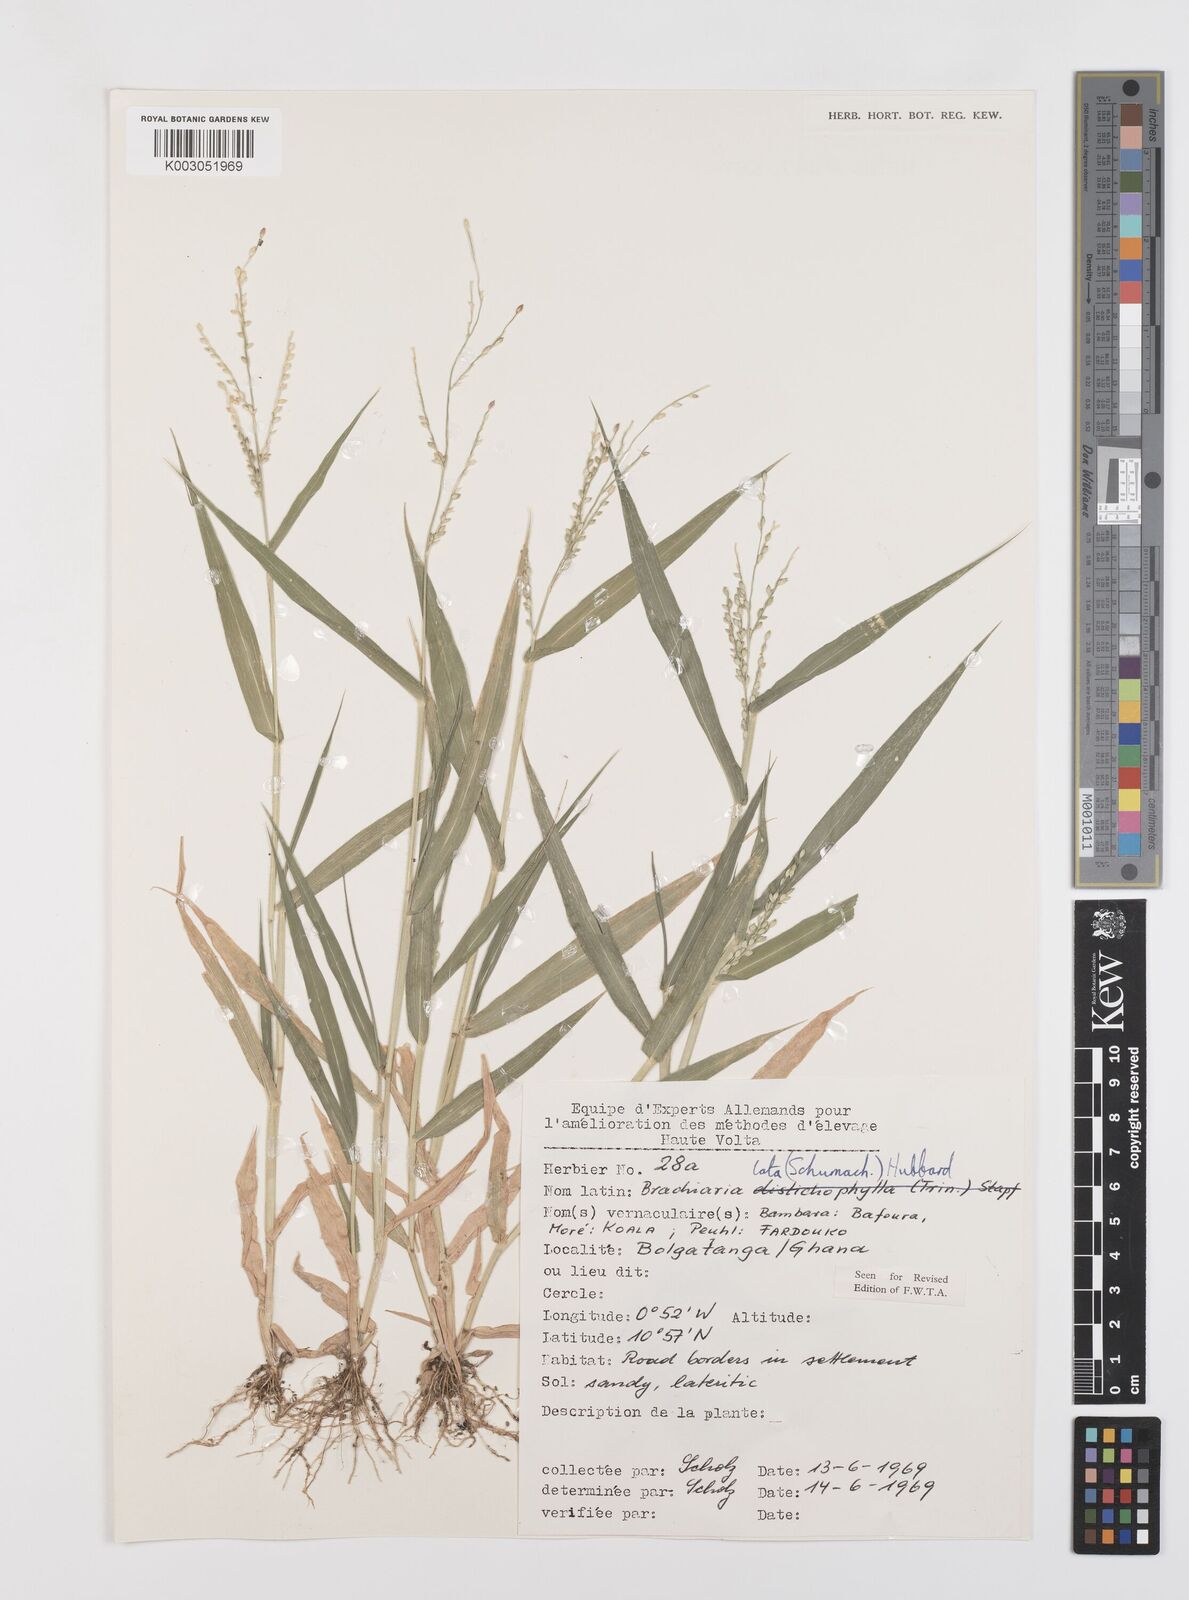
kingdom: Plantae
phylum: Tracheophyta
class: Liliopsida
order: Poales
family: Poaceae
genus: Urochloa
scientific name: Urochloa lata
